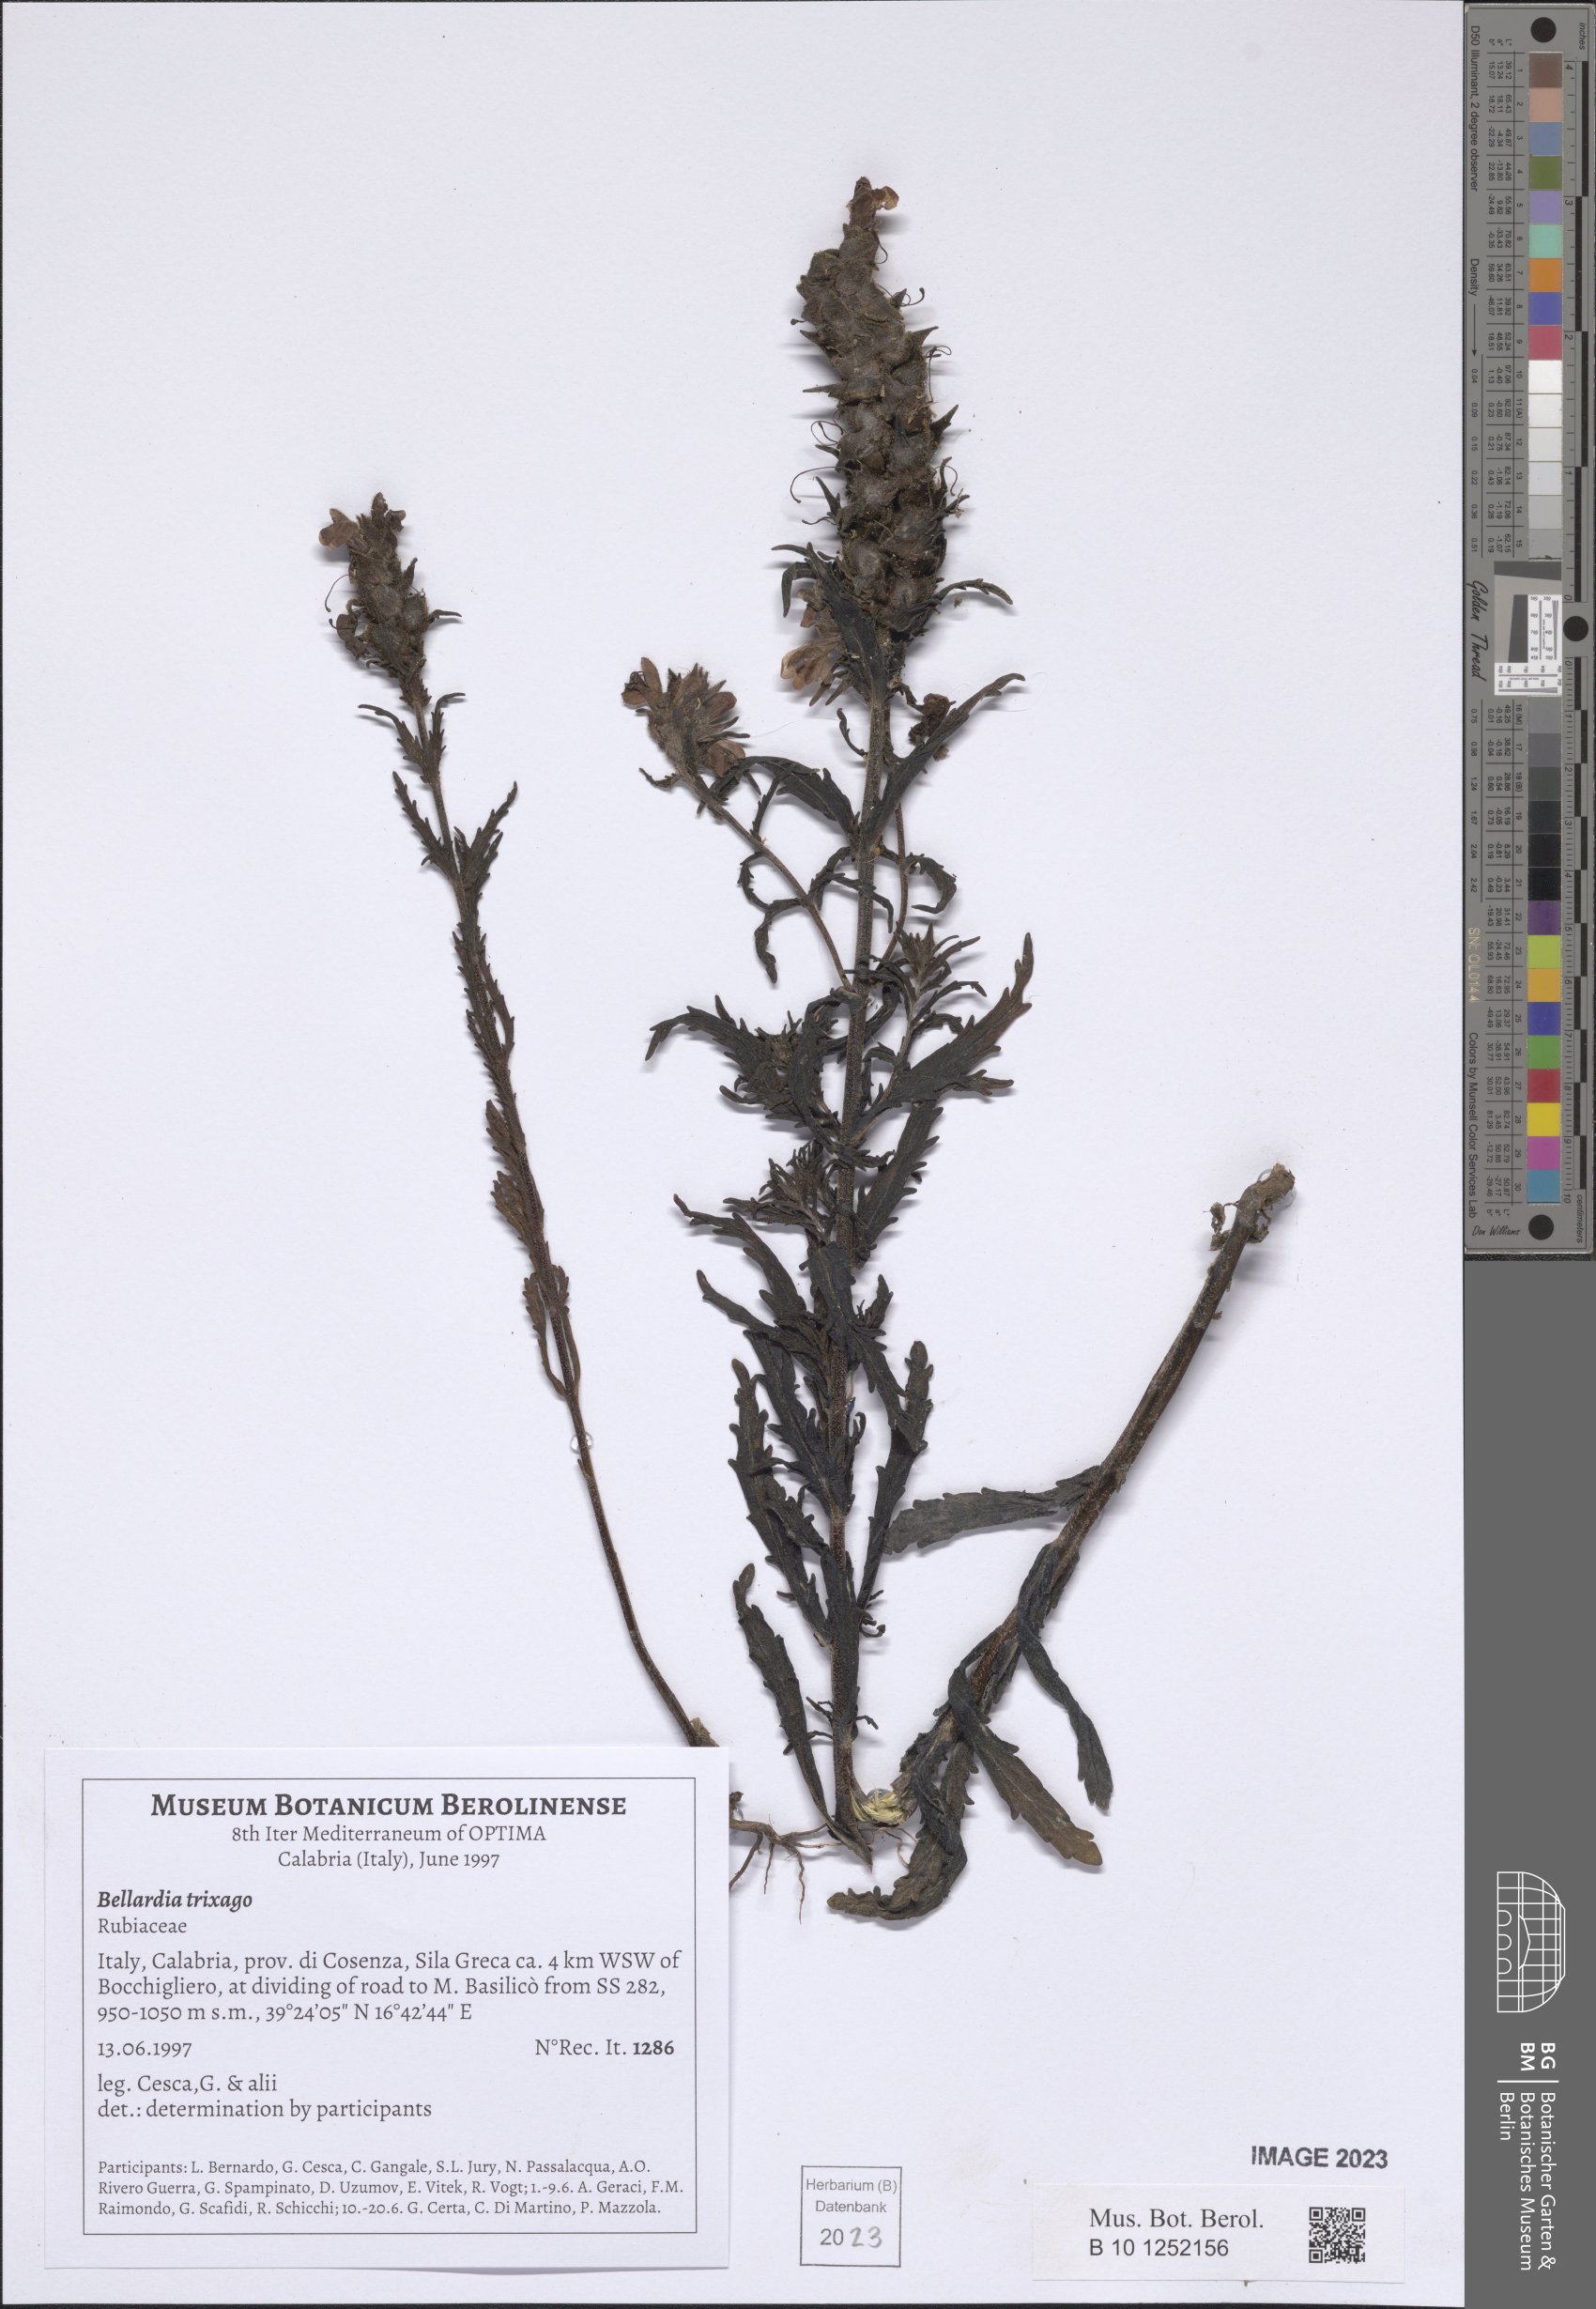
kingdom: Plantae
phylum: Tracheophyta
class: Magnoliopsida
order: Lamiales
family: Orobanchaceae
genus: Bellardia
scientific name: Bellardia trixago
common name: Mediterranean lineseed
